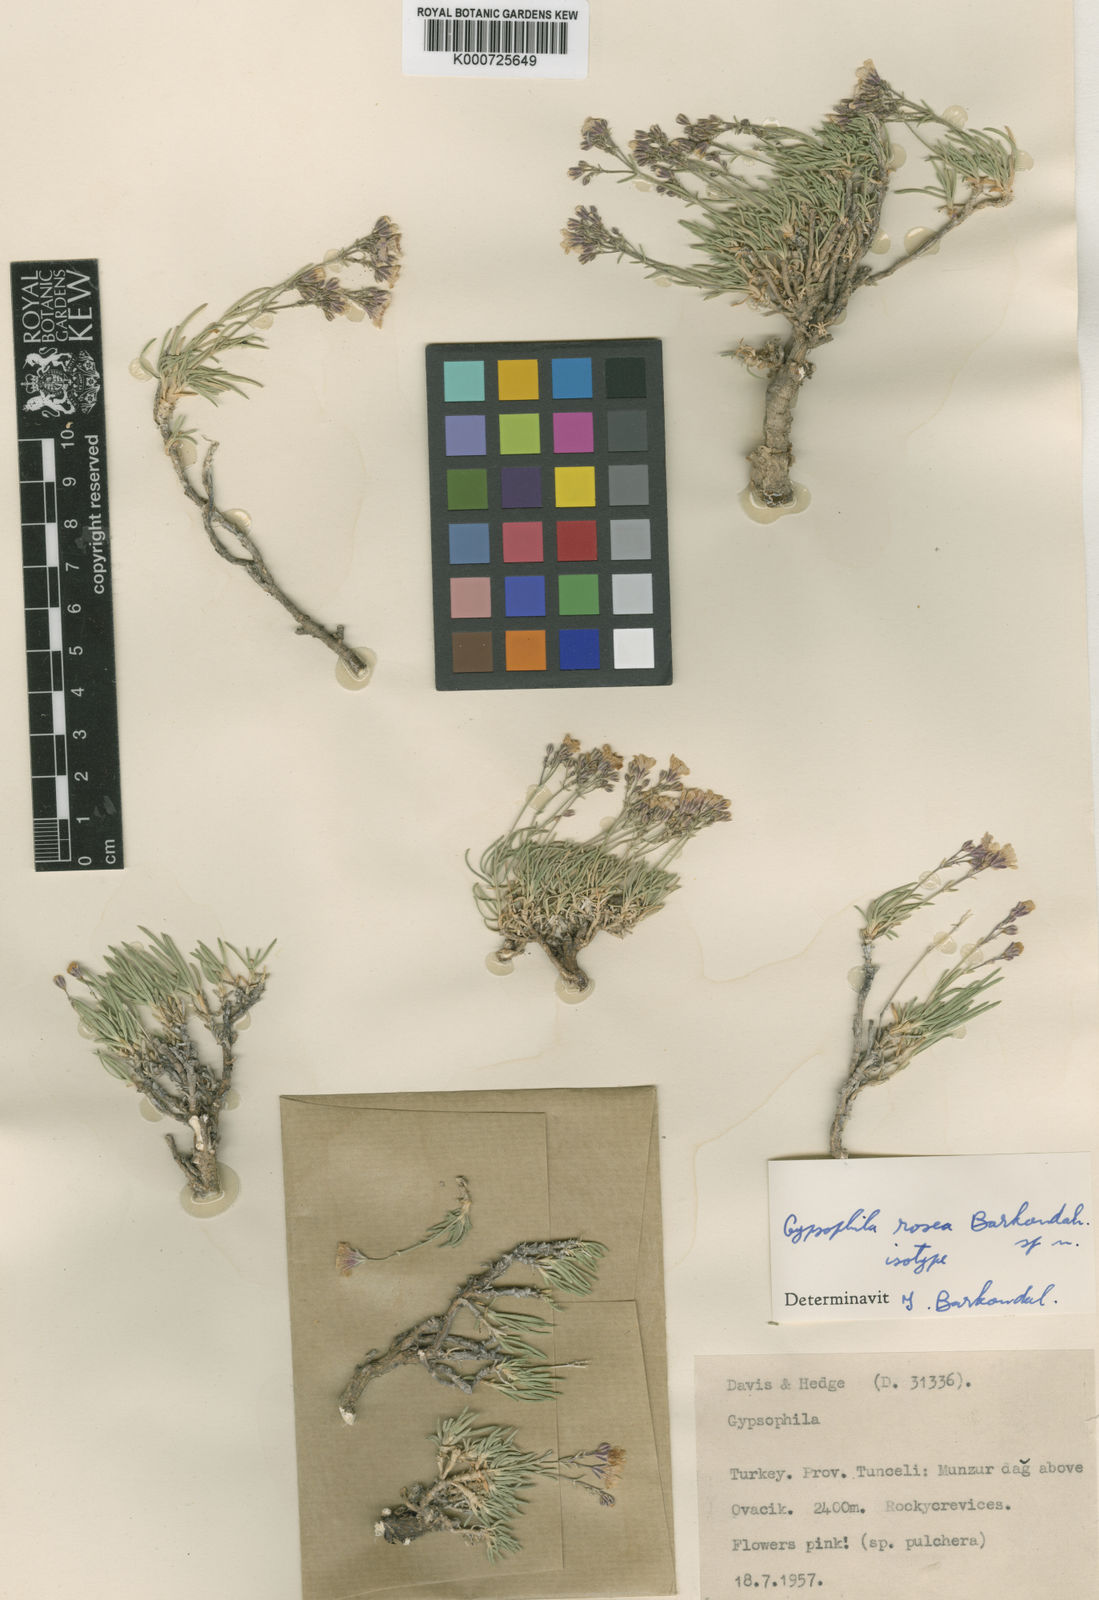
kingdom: Plantae
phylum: Tracheophyta
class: Magnoliopsida
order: Caryophyllales
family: Caryophyllaceae
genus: Gypsophila
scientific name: Gypsophila briquetiana
